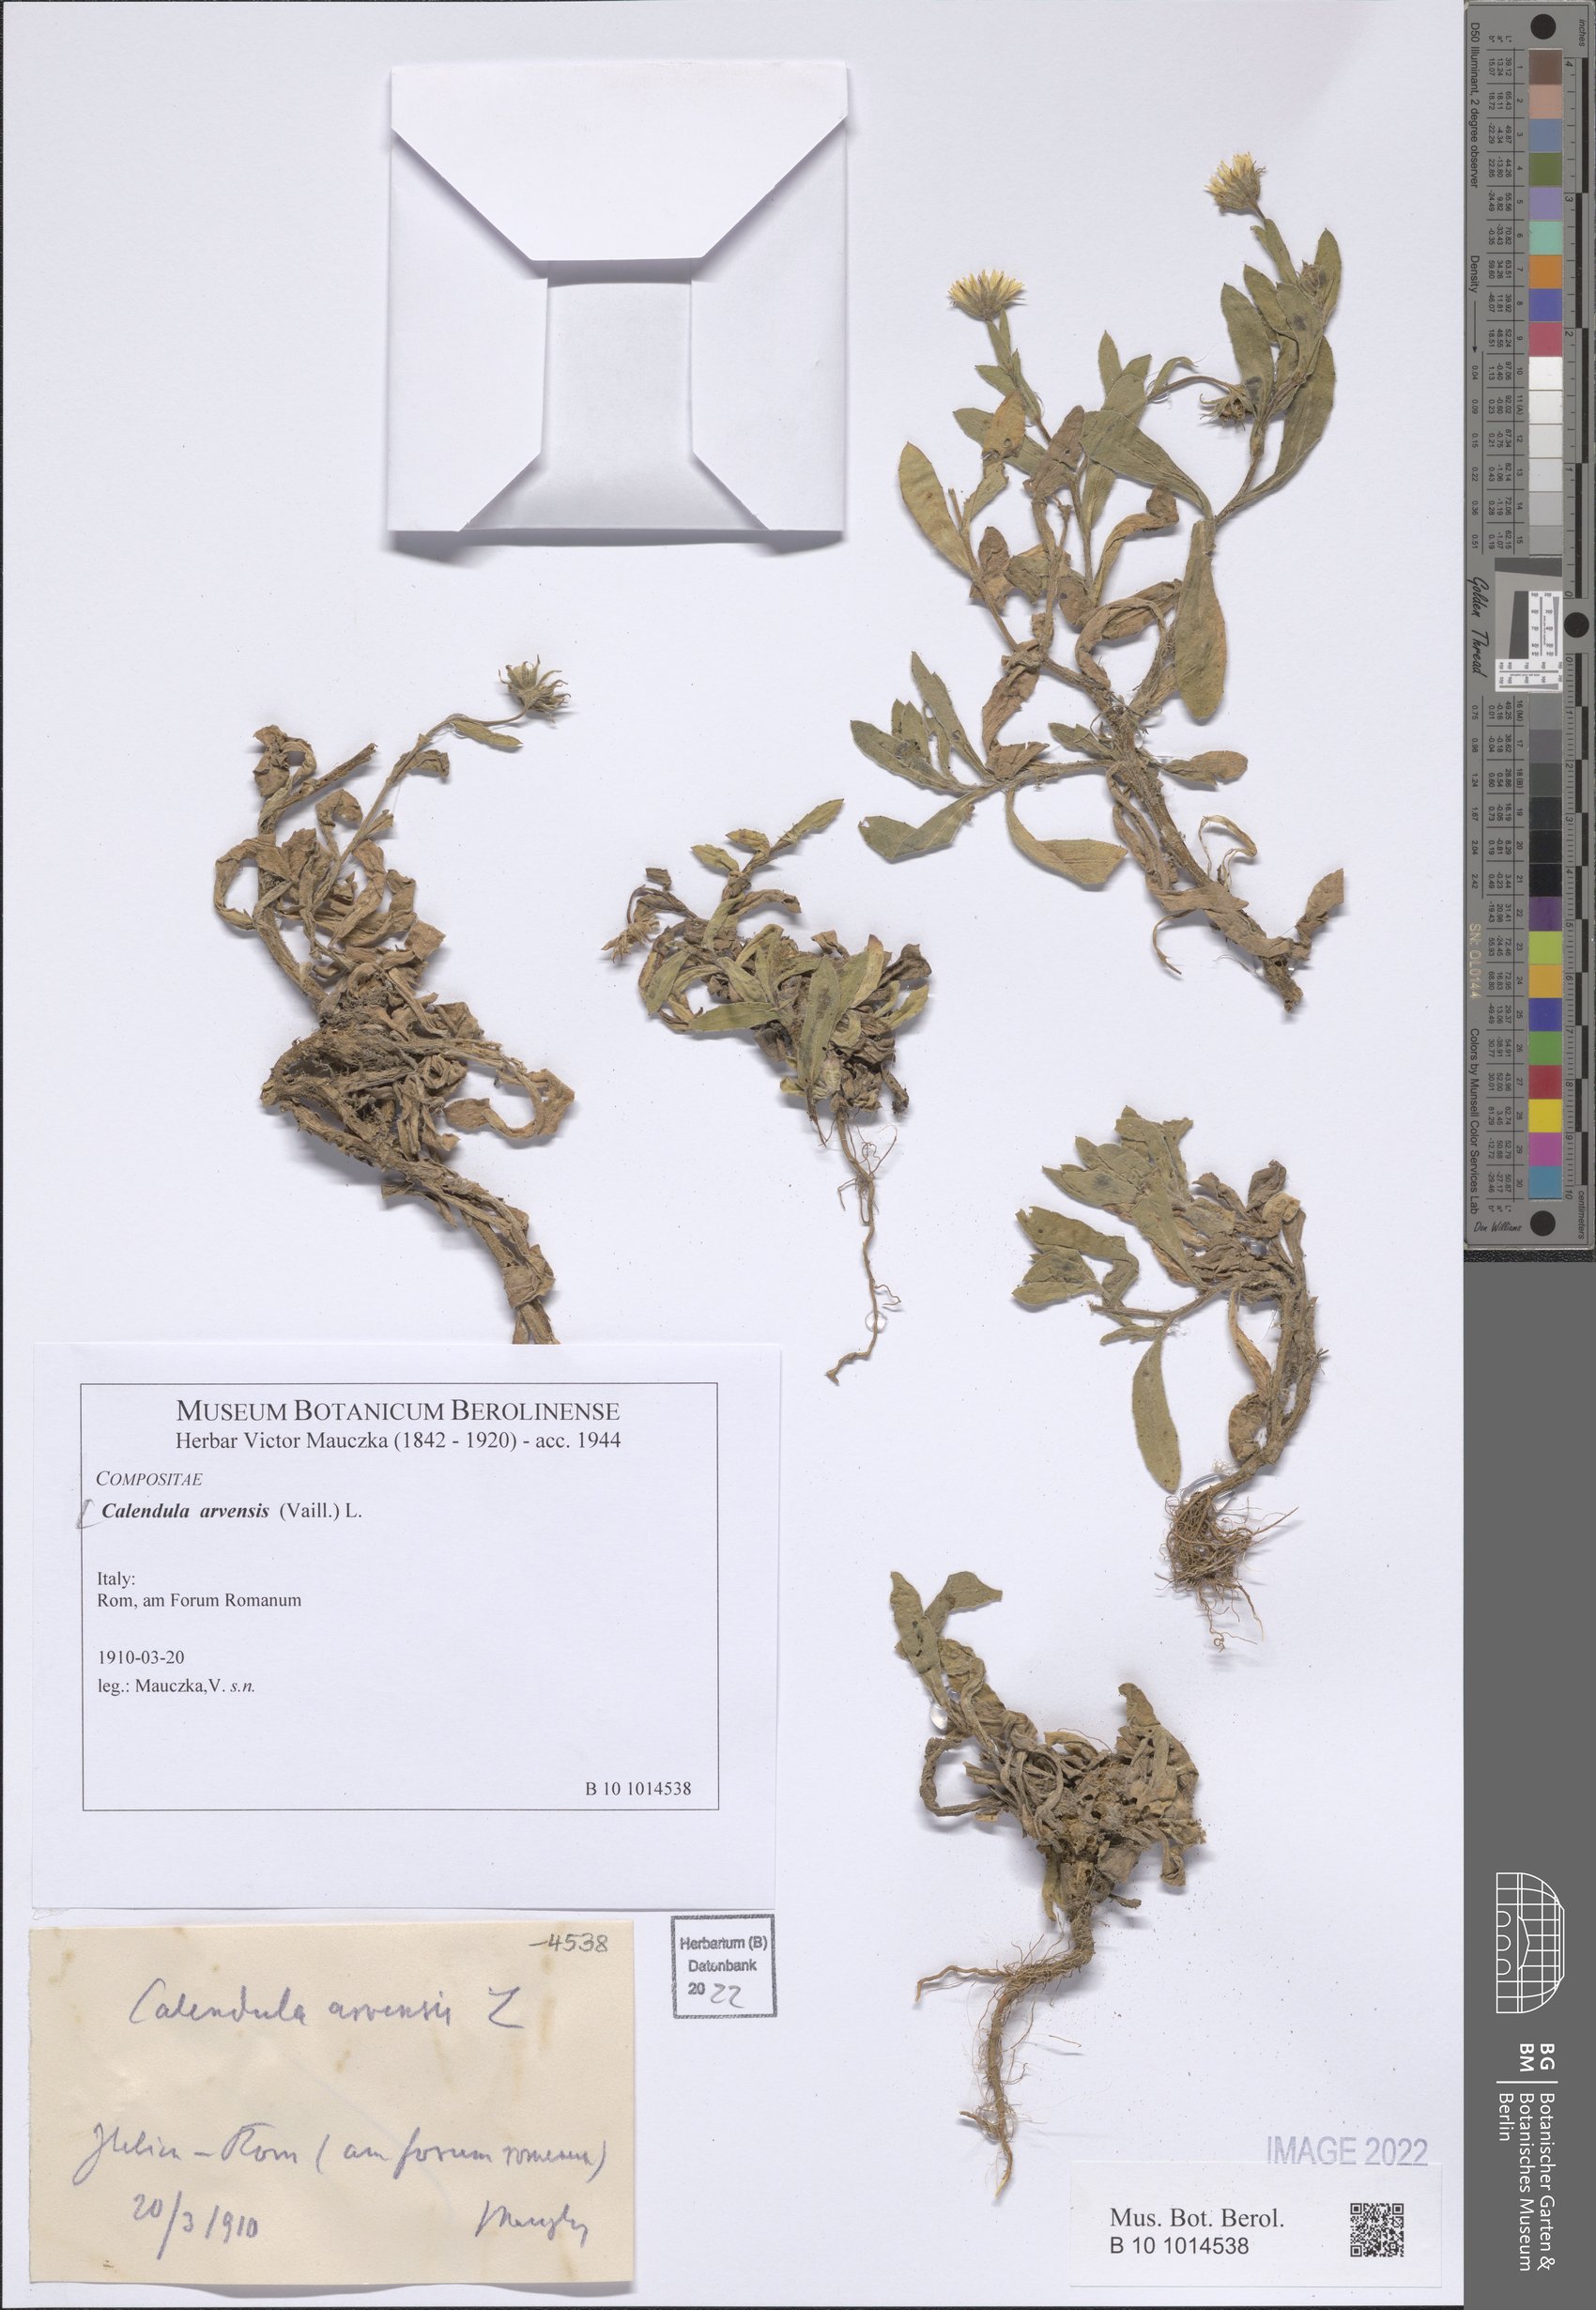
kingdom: Plantae
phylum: Tracheophyta
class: Magnoliopsida
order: Asterales
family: Asteraceae
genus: Calendula
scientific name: Calendula arvensis
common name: Field marigold
